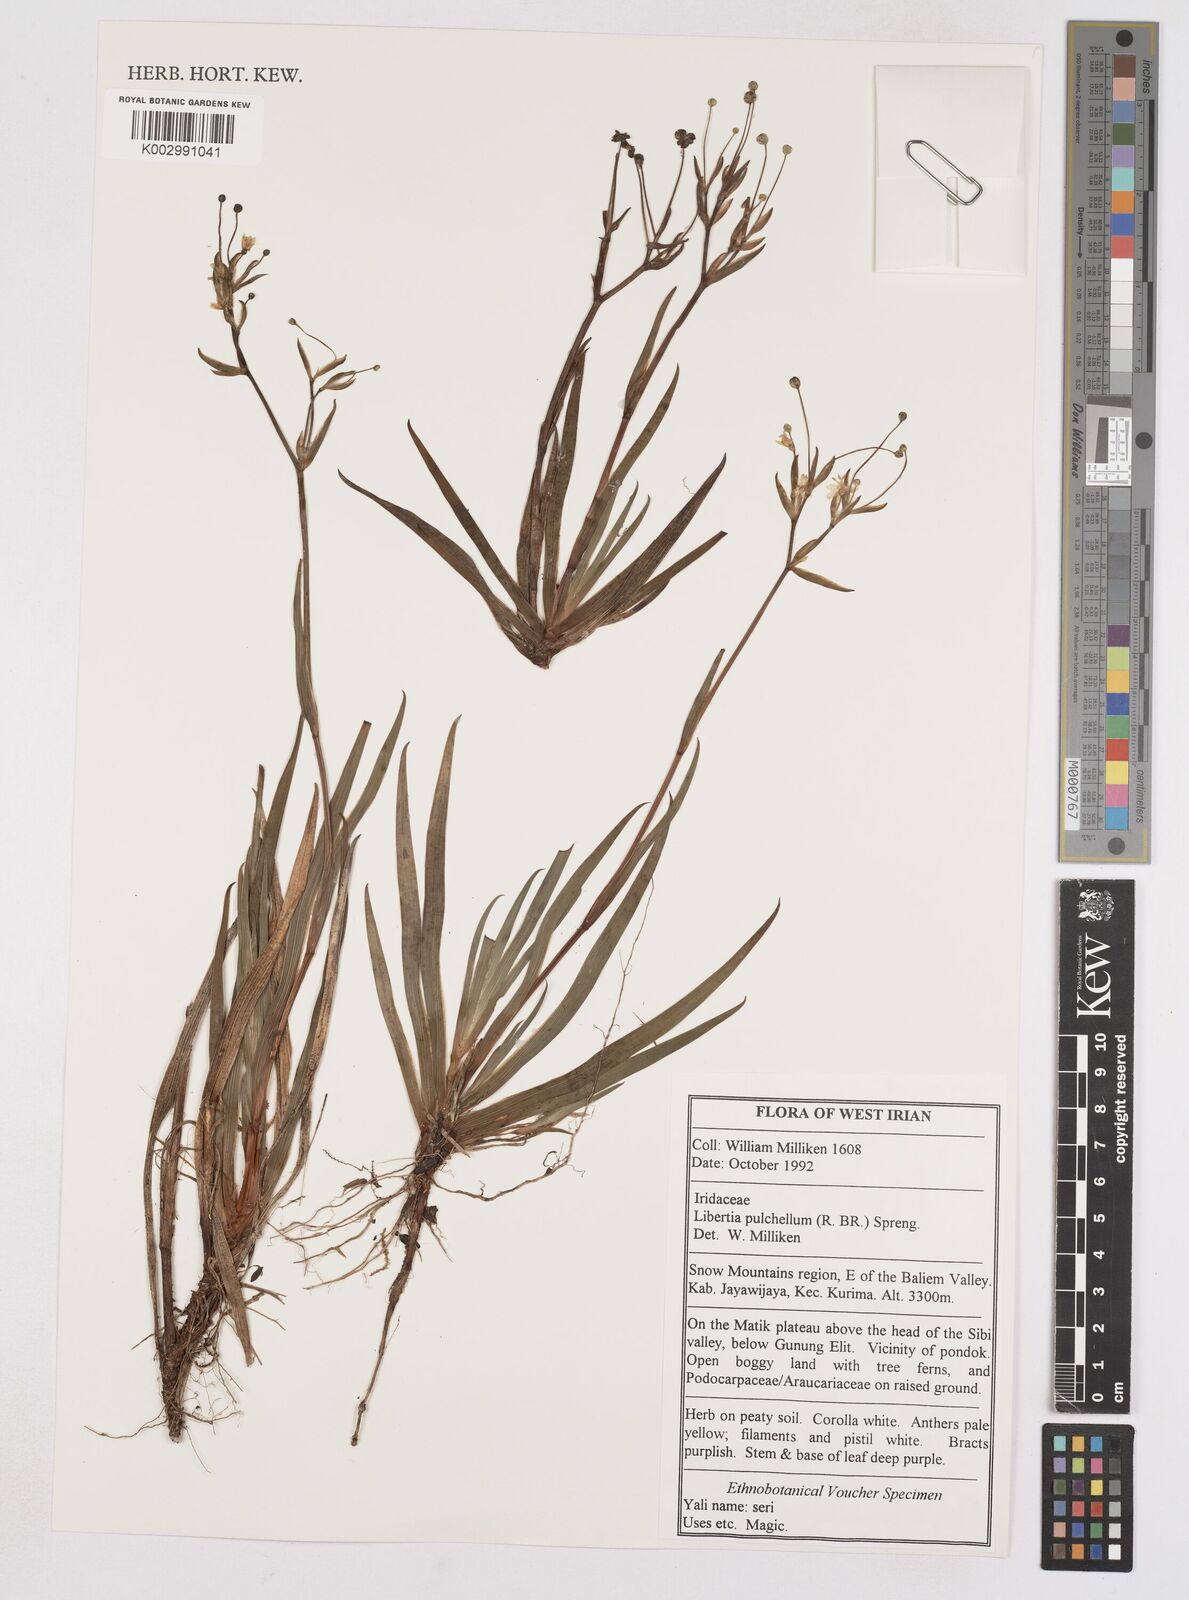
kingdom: Plantae
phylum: Tracheophyta
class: Liliopsida
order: Asparagales
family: Iridaceae
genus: Libertia
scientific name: Libertia pulchella
